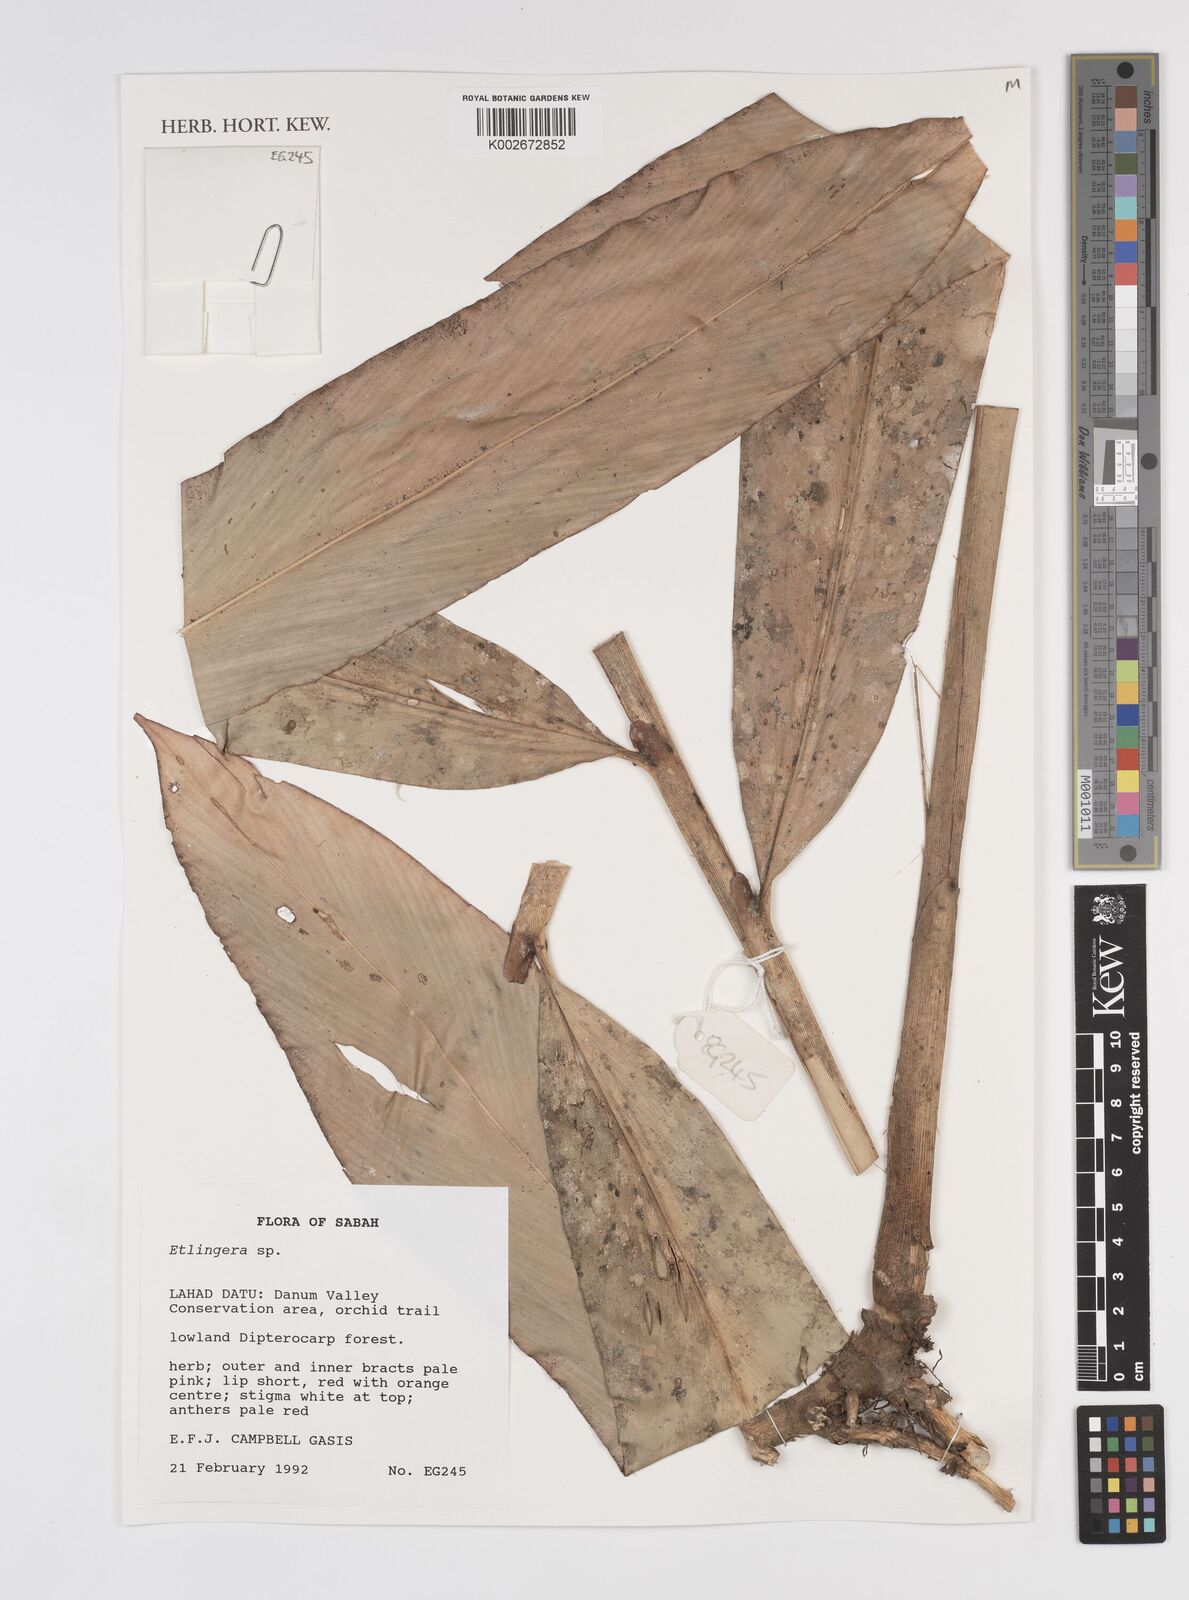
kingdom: Plantae
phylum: Tracheophyta
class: Liliopsida
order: Zingiberales
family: Zingiberaceae
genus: Etlingera
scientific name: Etlingera
